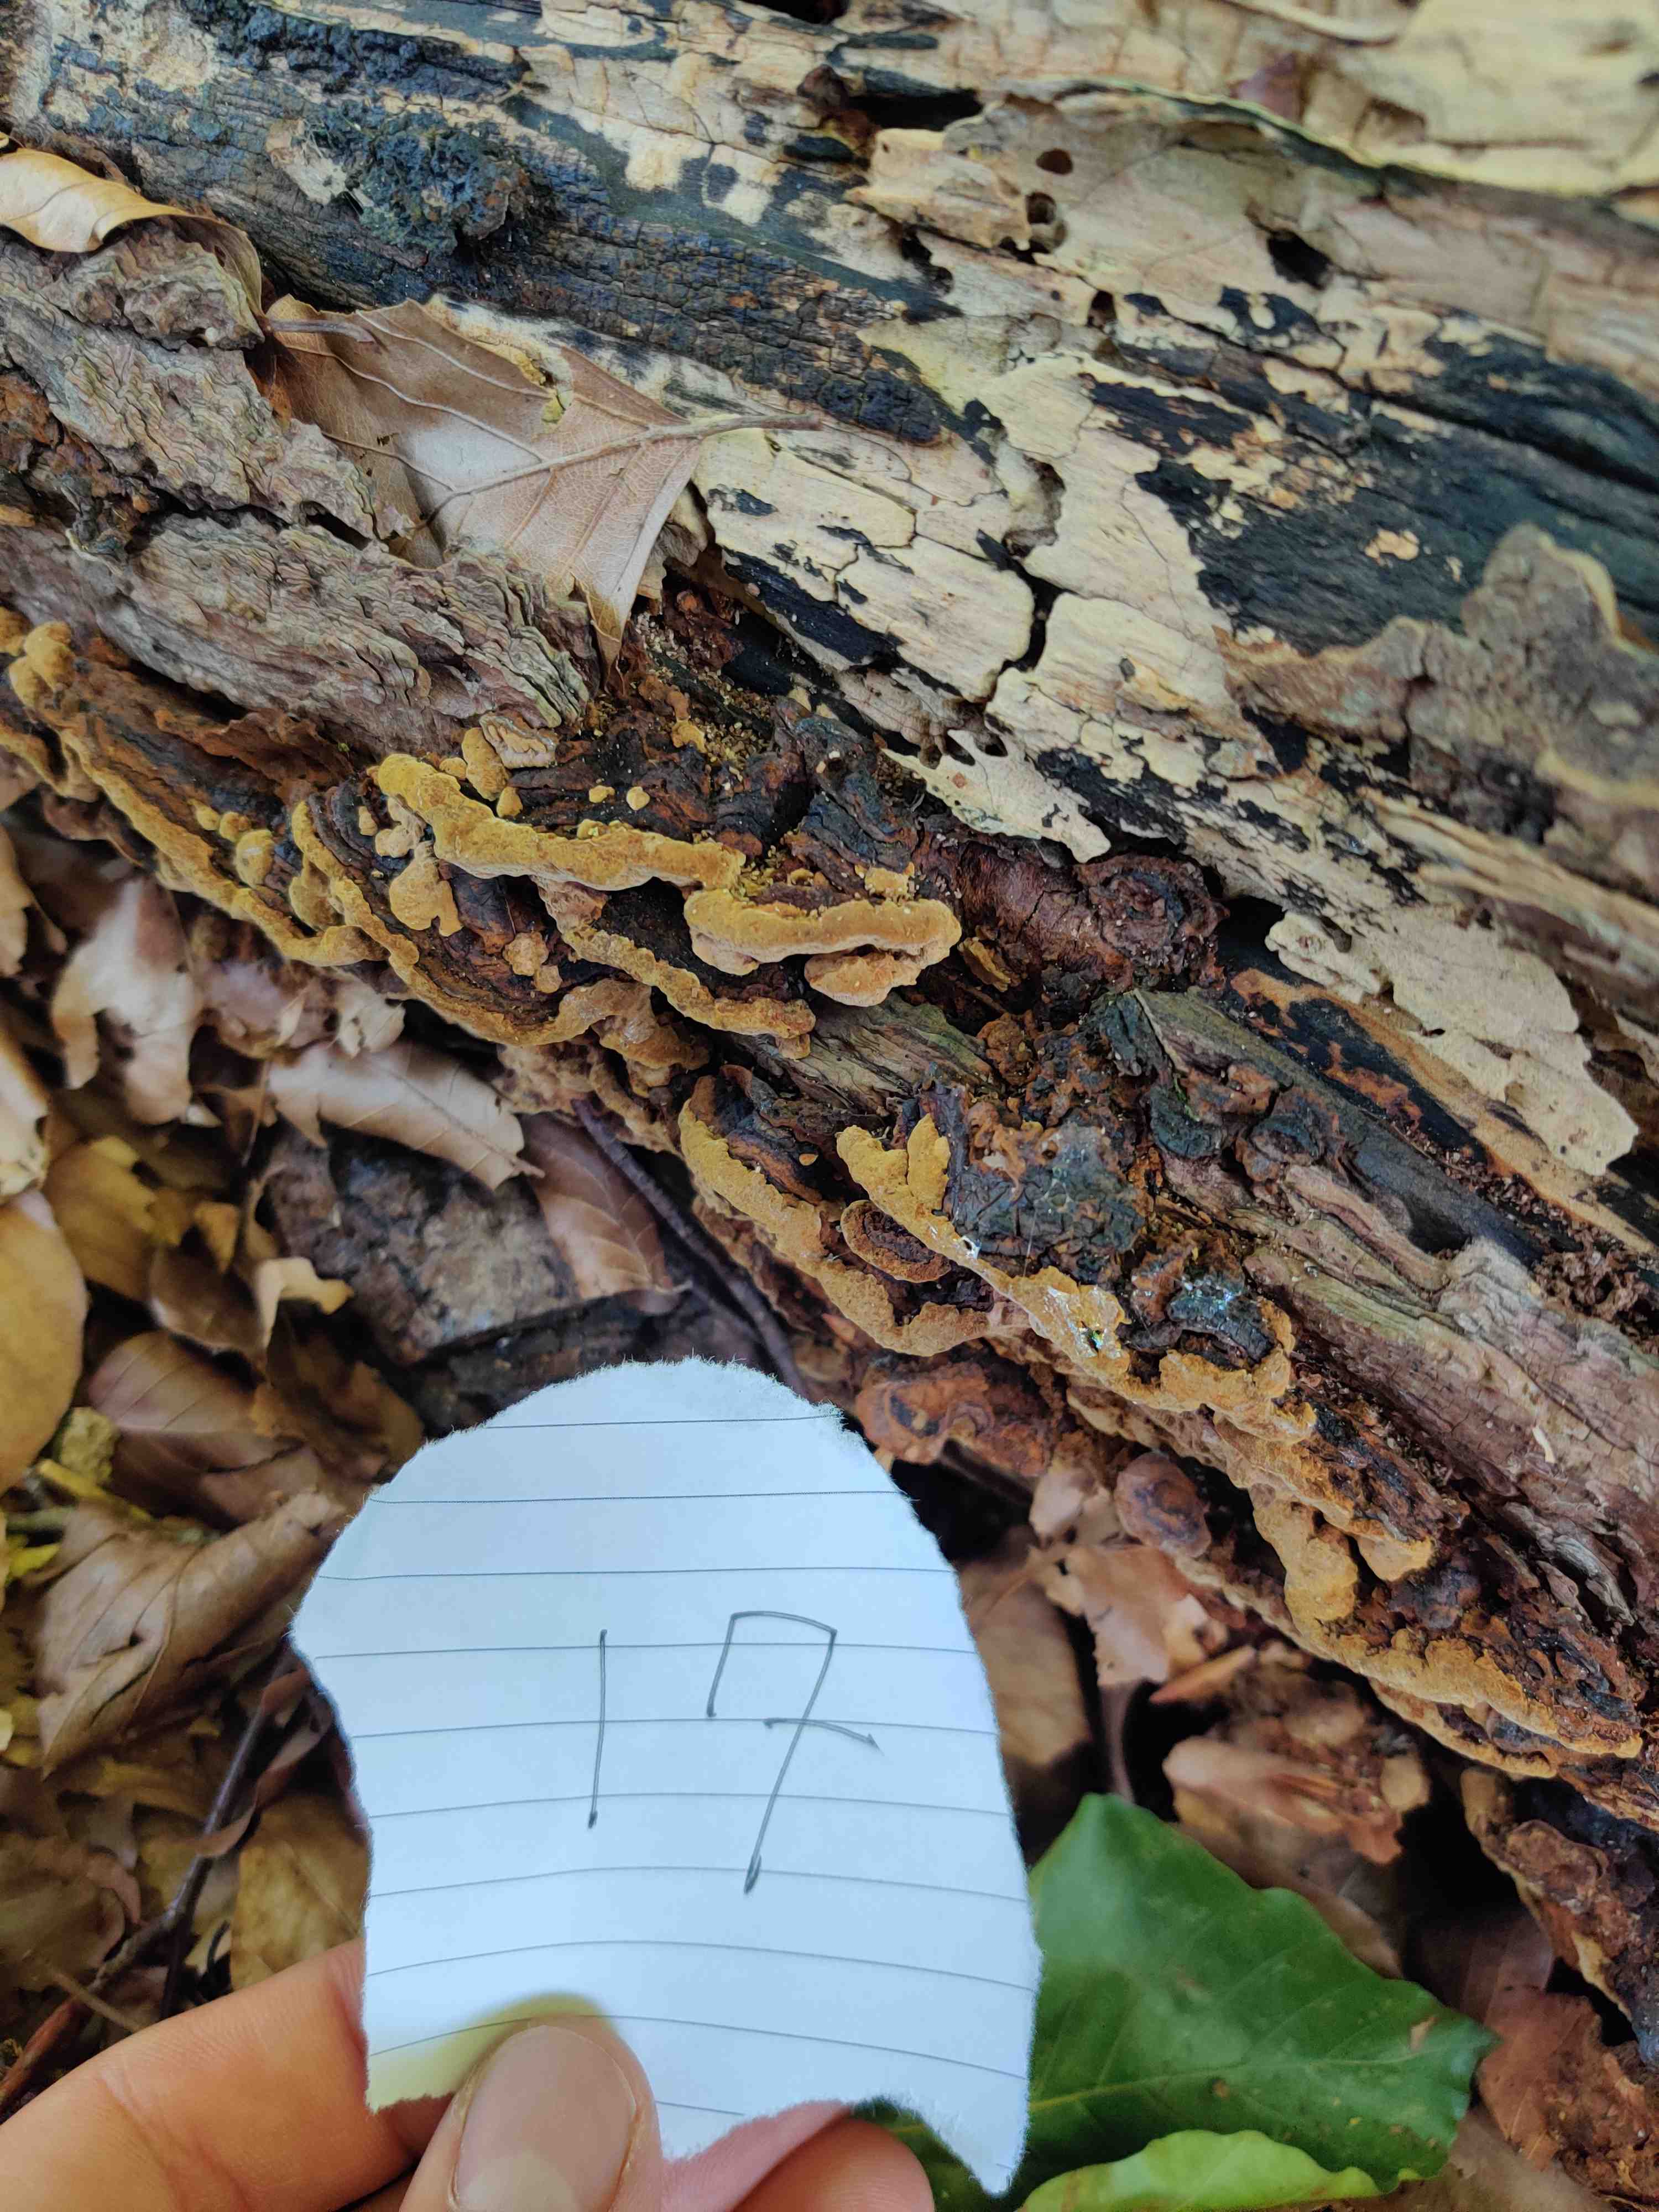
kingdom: Fungi
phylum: Basidiomycota
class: Agaricomycetes
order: Hymenochaetales
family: Hymenochaetaceae
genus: Phellinopsis
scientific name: Phellinopsis conchata
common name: pile-ildporesvamp
